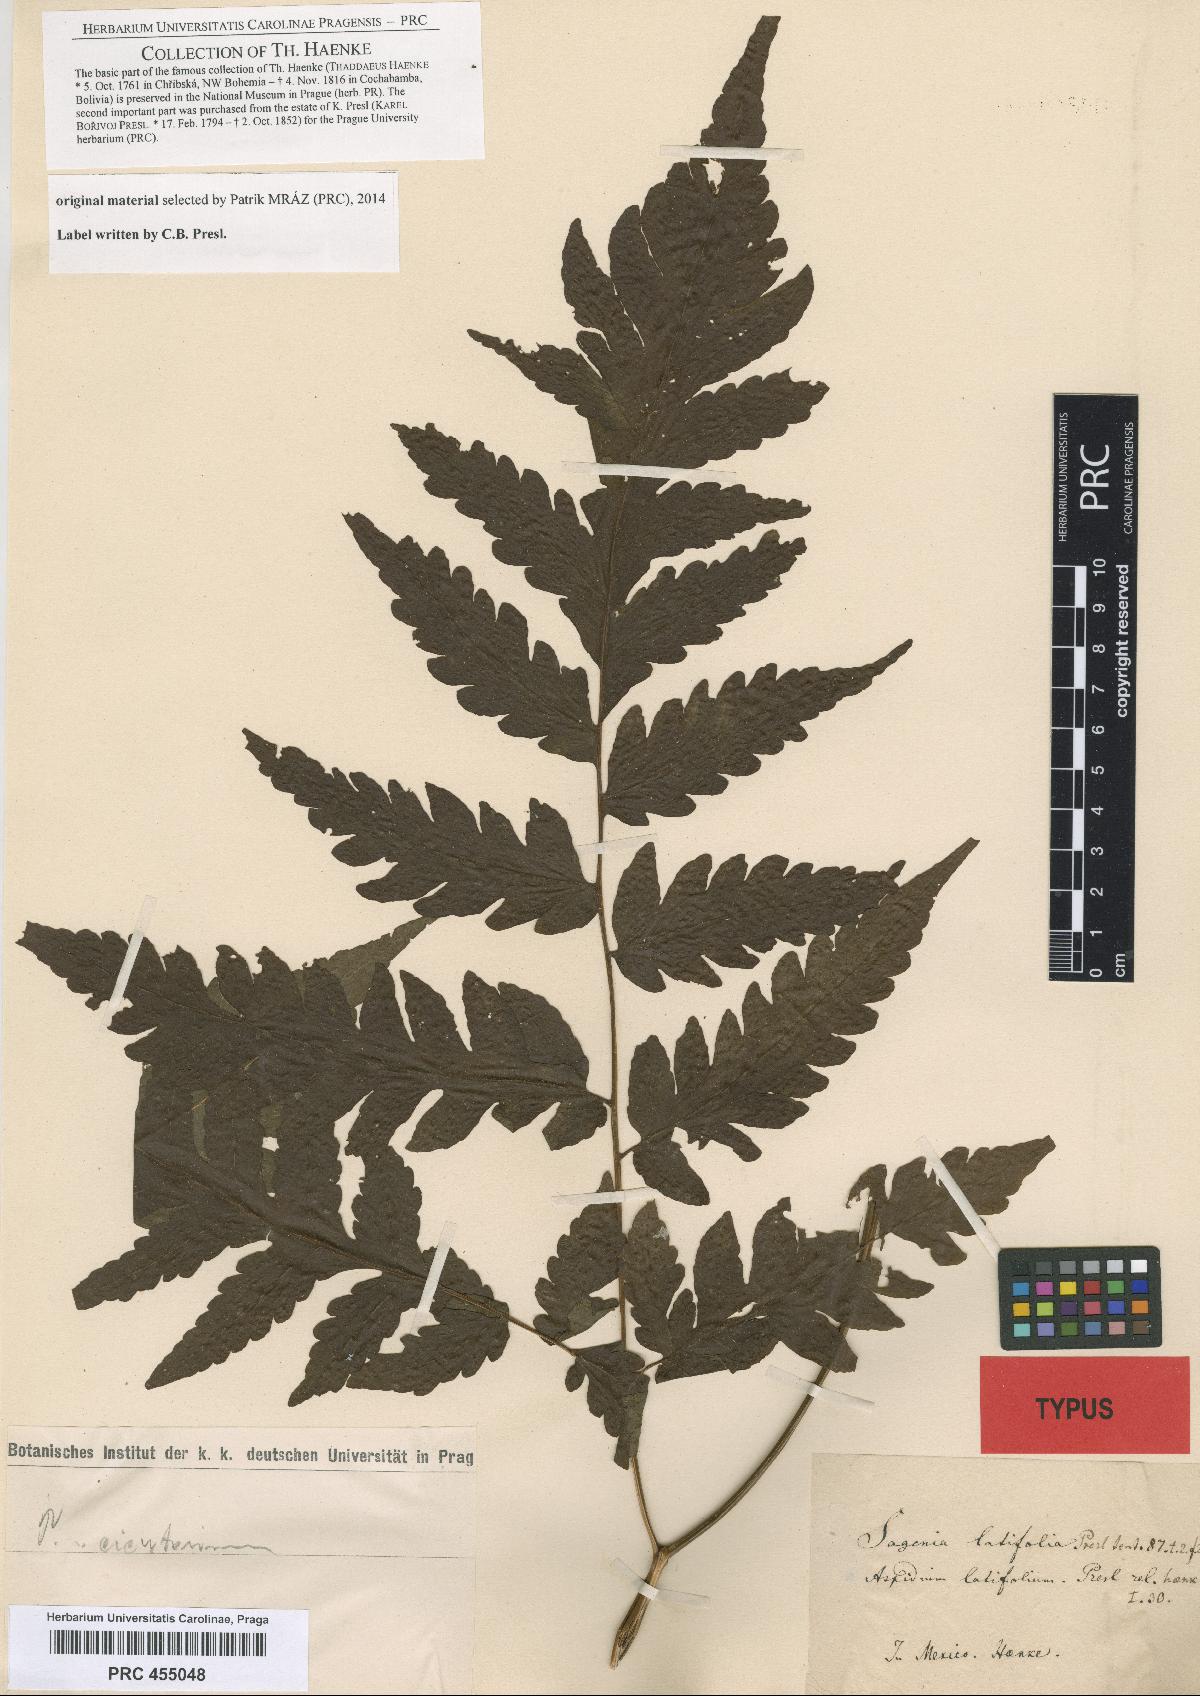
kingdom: Plantae
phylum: Tracheophyta
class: Polypodiopsida
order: Polypodiales
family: Tectariaceae
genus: Tectaria
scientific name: Tectaria mexicana
